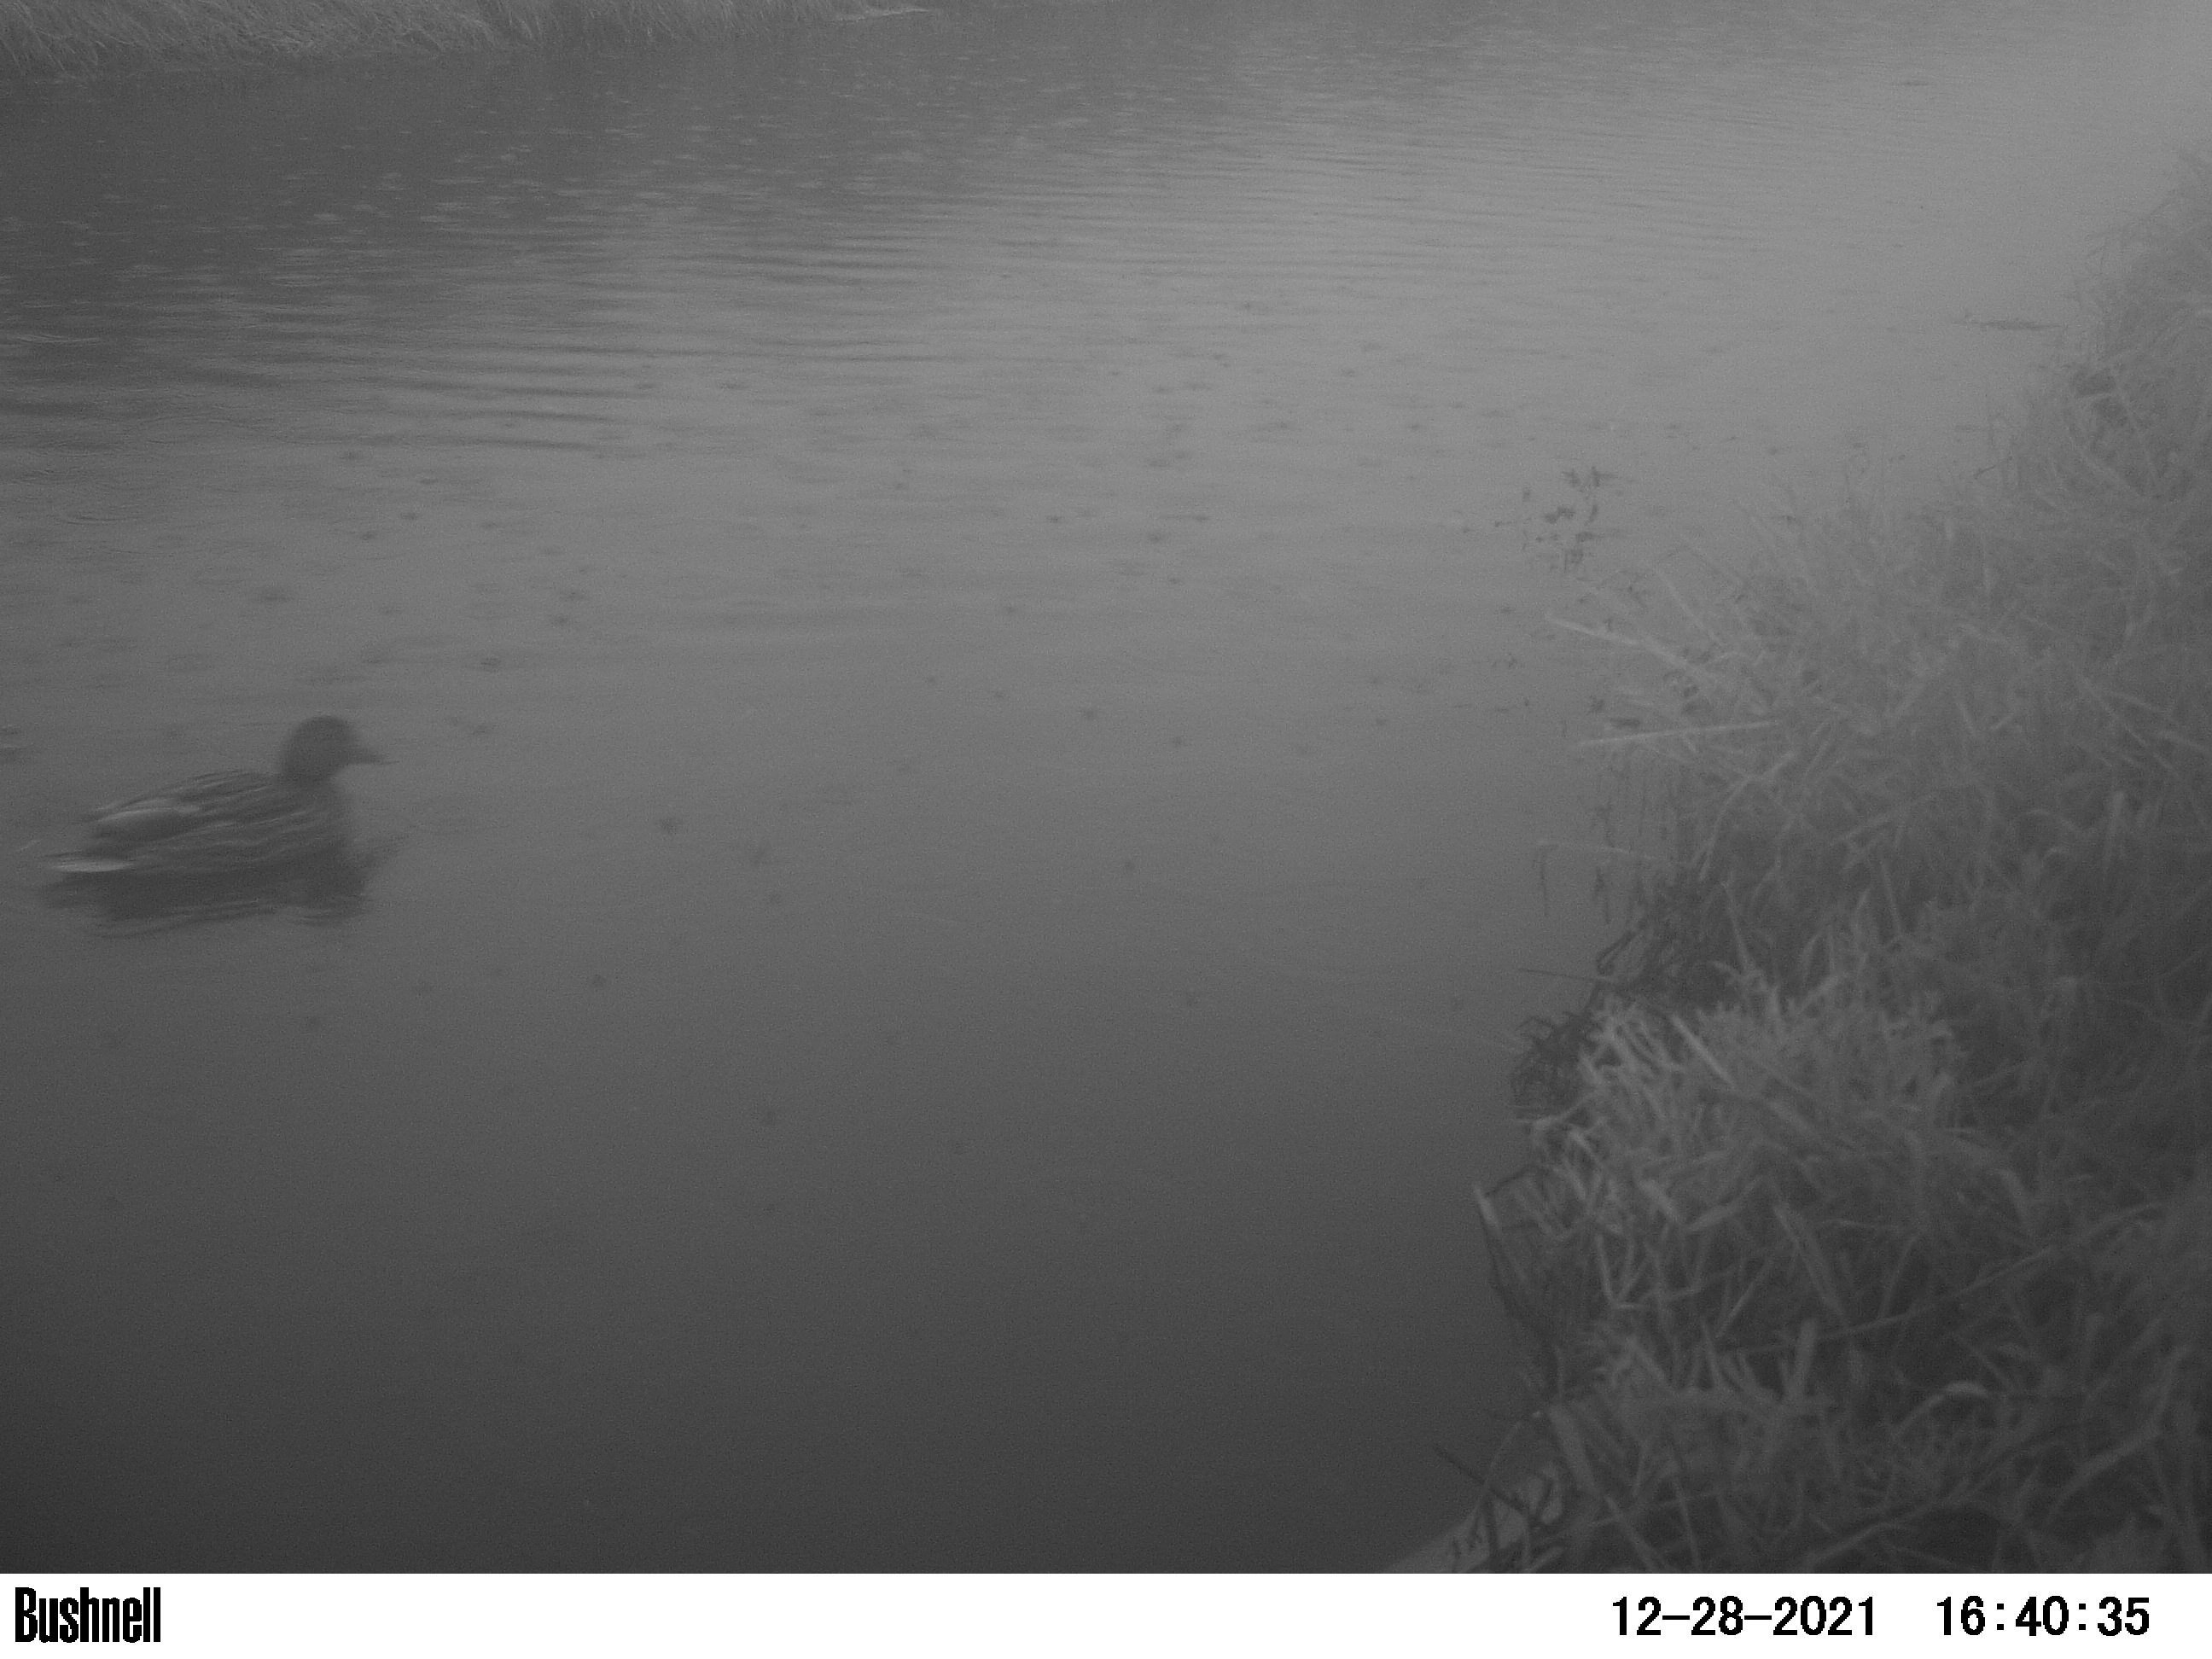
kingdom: Animalia
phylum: Chordata
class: Aves
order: Anseriformes
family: Anatidae
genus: Anas
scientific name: Anas
